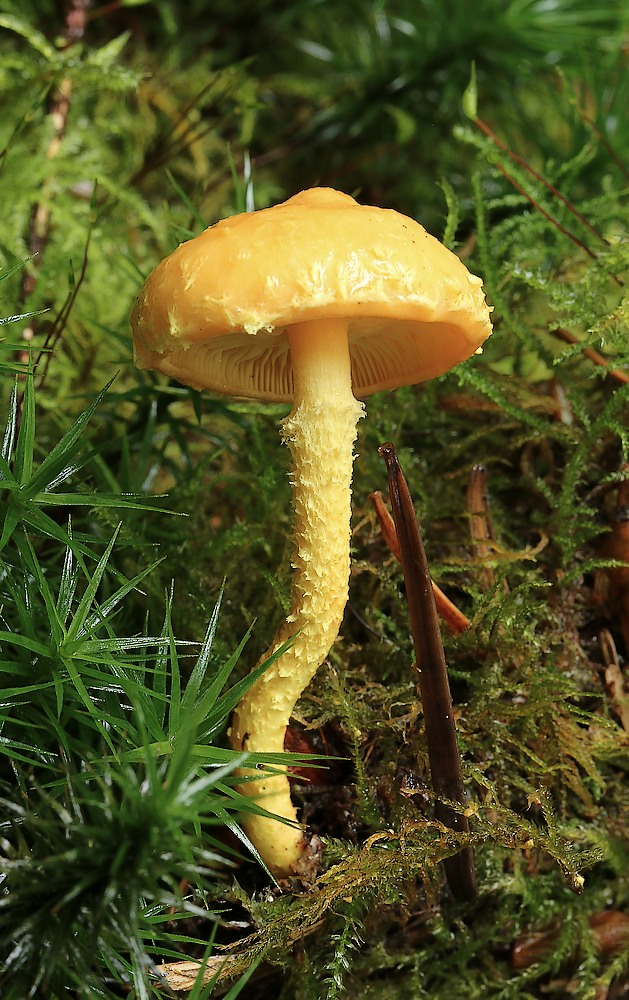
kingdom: Fungi
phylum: Basidiomycota
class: Agaricomycetes
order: Agaricales
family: Strophariaceae
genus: Pholiota
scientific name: Pholiota flammans
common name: flamme-skælhat
